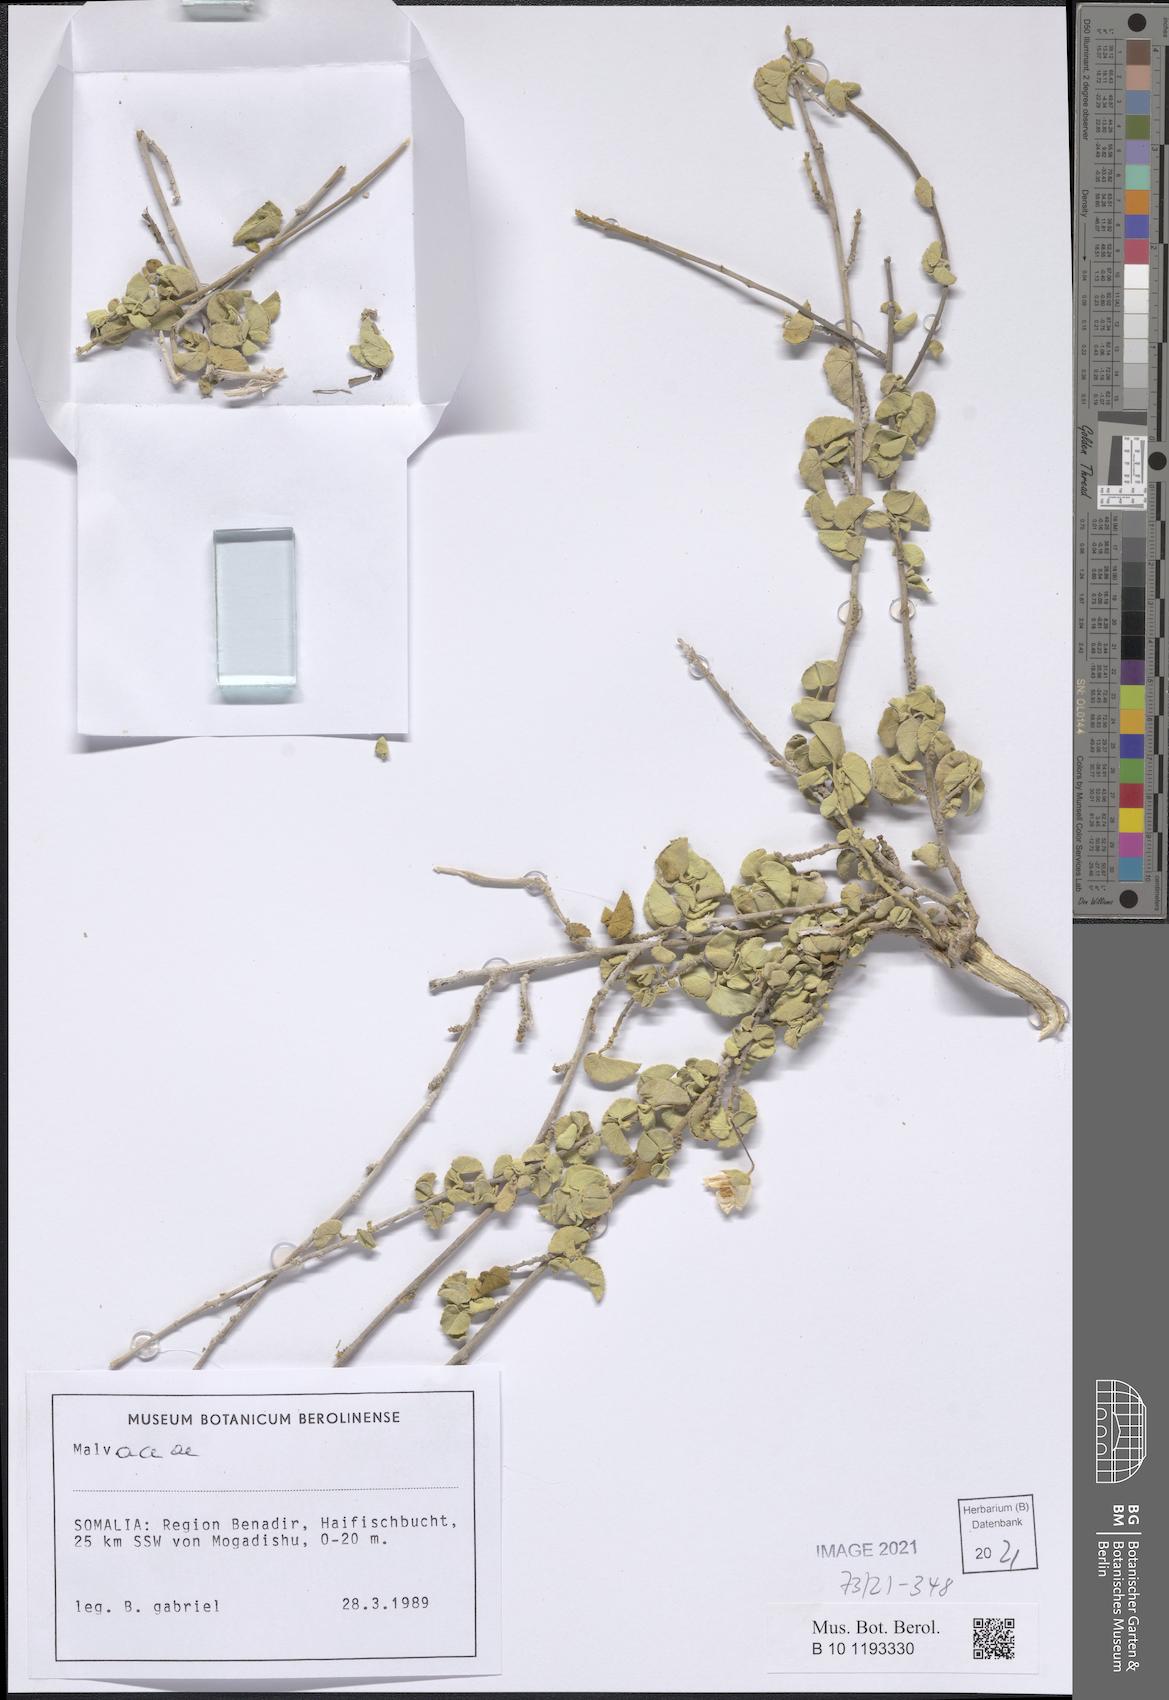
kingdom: Plantae
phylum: Tracheophyta
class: Magnoliopsida
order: Malvales
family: Malvaceae
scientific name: Malvaceae
